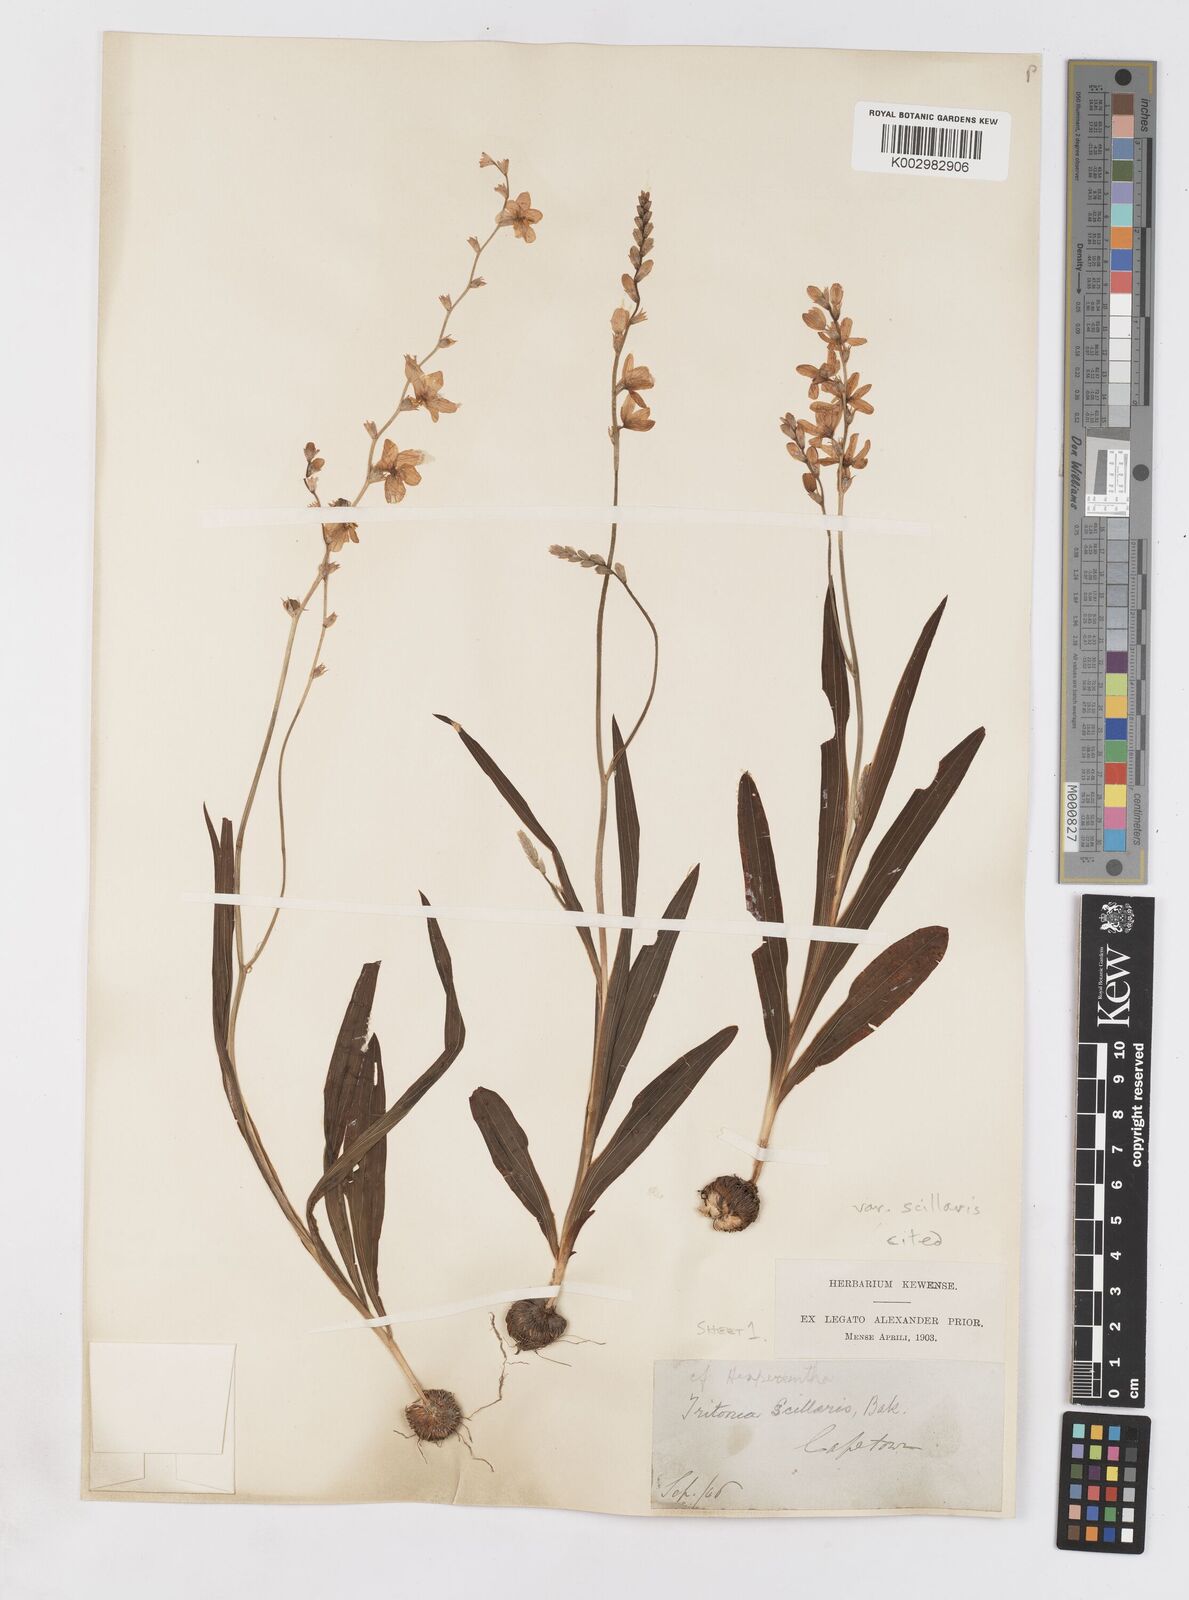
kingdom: Plantae
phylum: Tracheophyta
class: Liliopsida
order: Asparagales
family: Iridaceae
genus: Ixia
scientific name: Ixia scillaris
